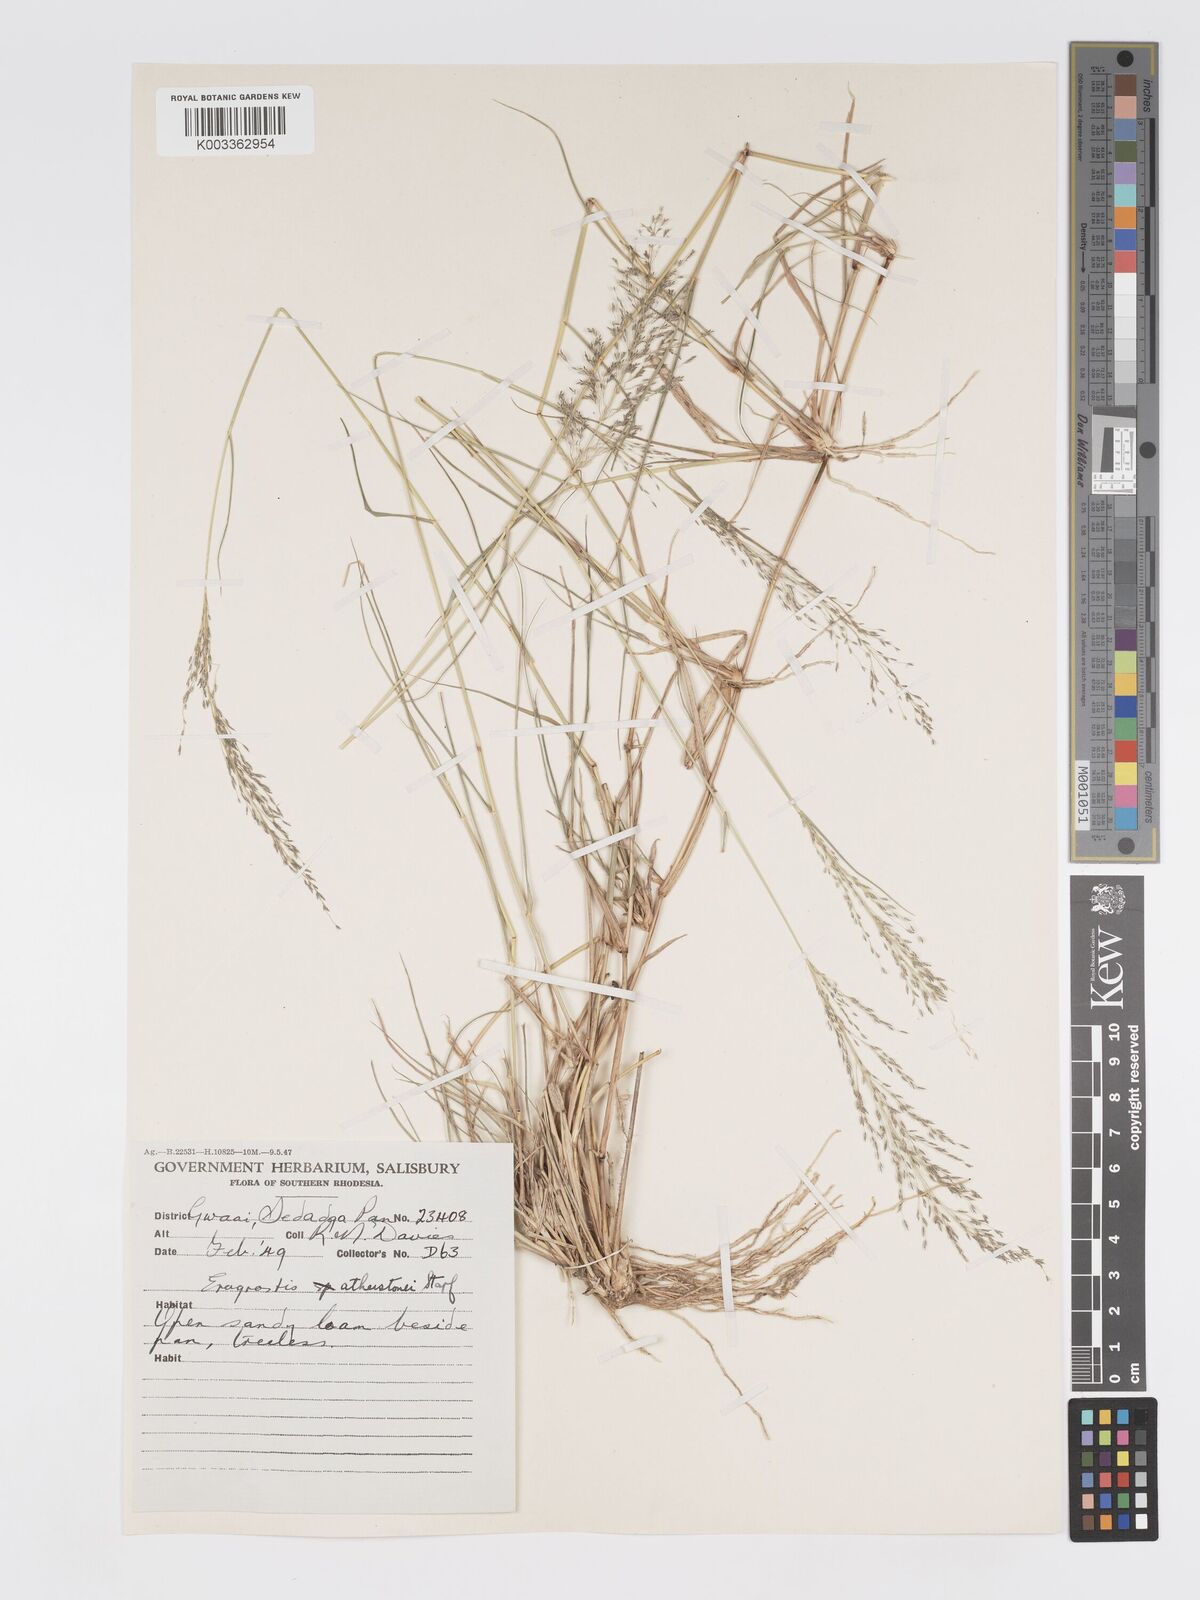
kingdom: Plantae
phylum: Tracheophyta
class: Liliopsida
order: Poales
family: Poaceae
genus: Eragrostis
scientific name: Eragrostis cylindriflora
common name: Cylinderflower lovegrass
